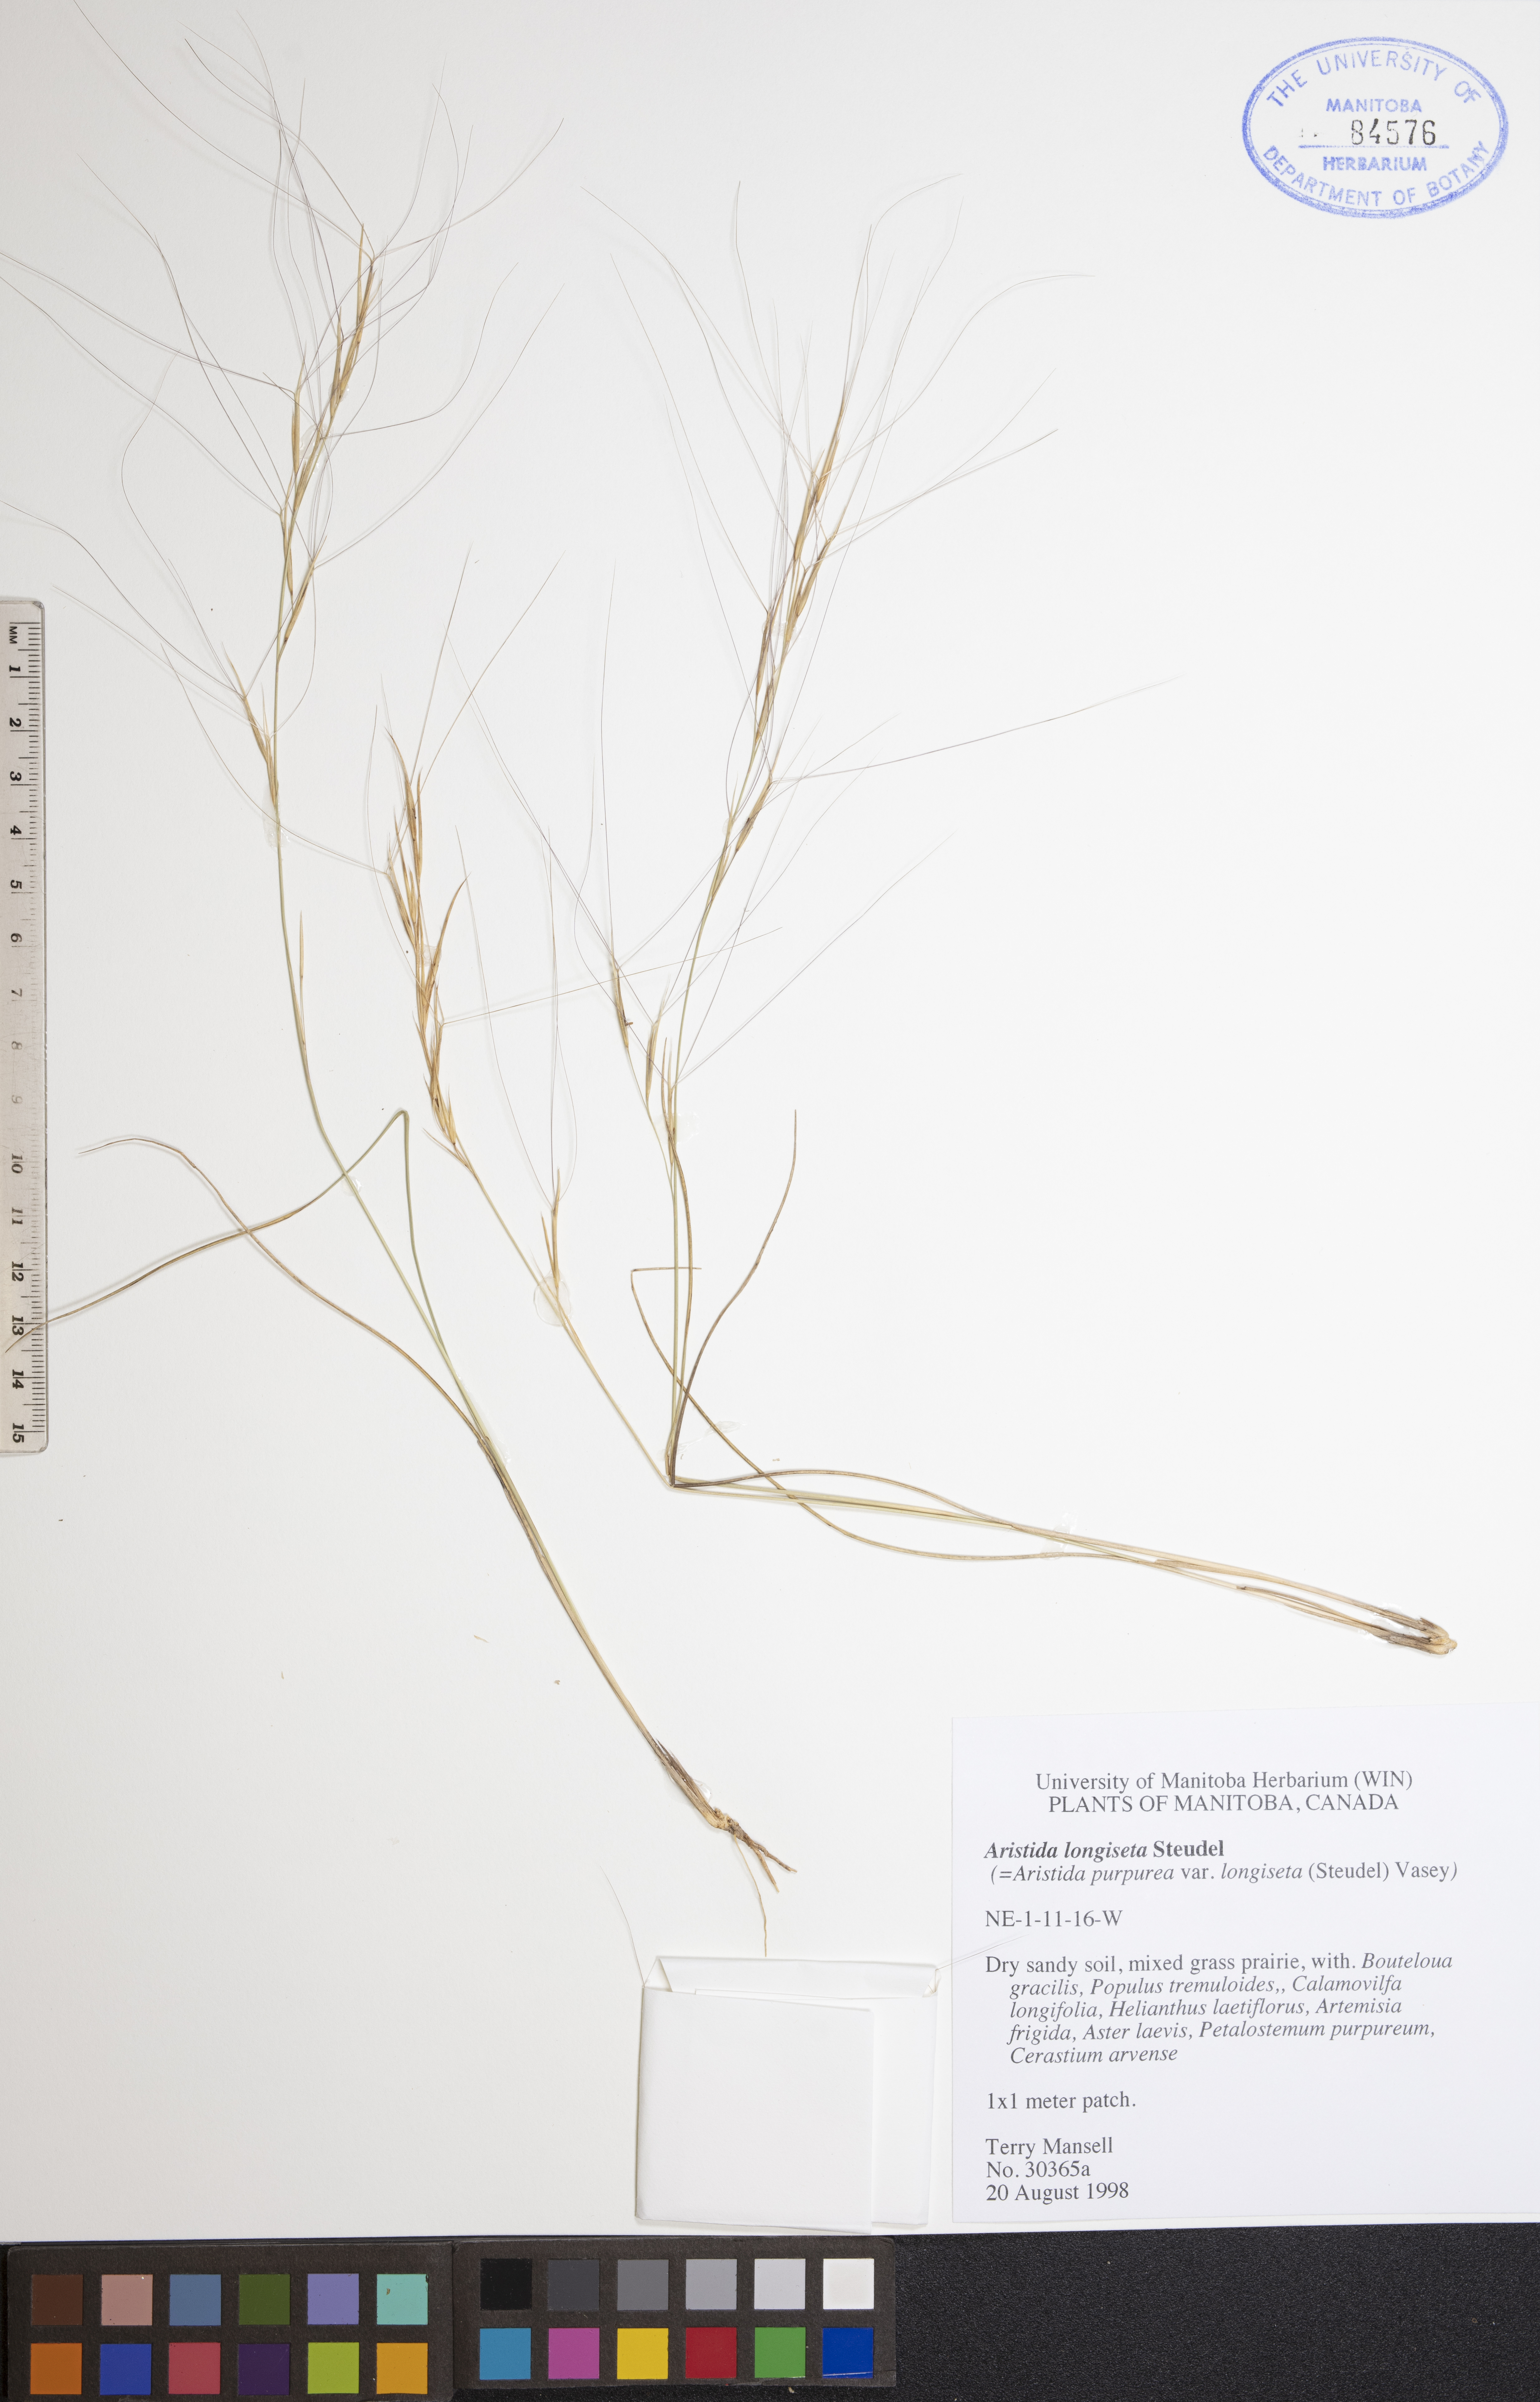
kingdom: Plantae
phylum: Tracheophyta
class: Liliopsida
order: Poales
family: Poaceae
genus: Aristida
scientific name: Aristida longiseta
